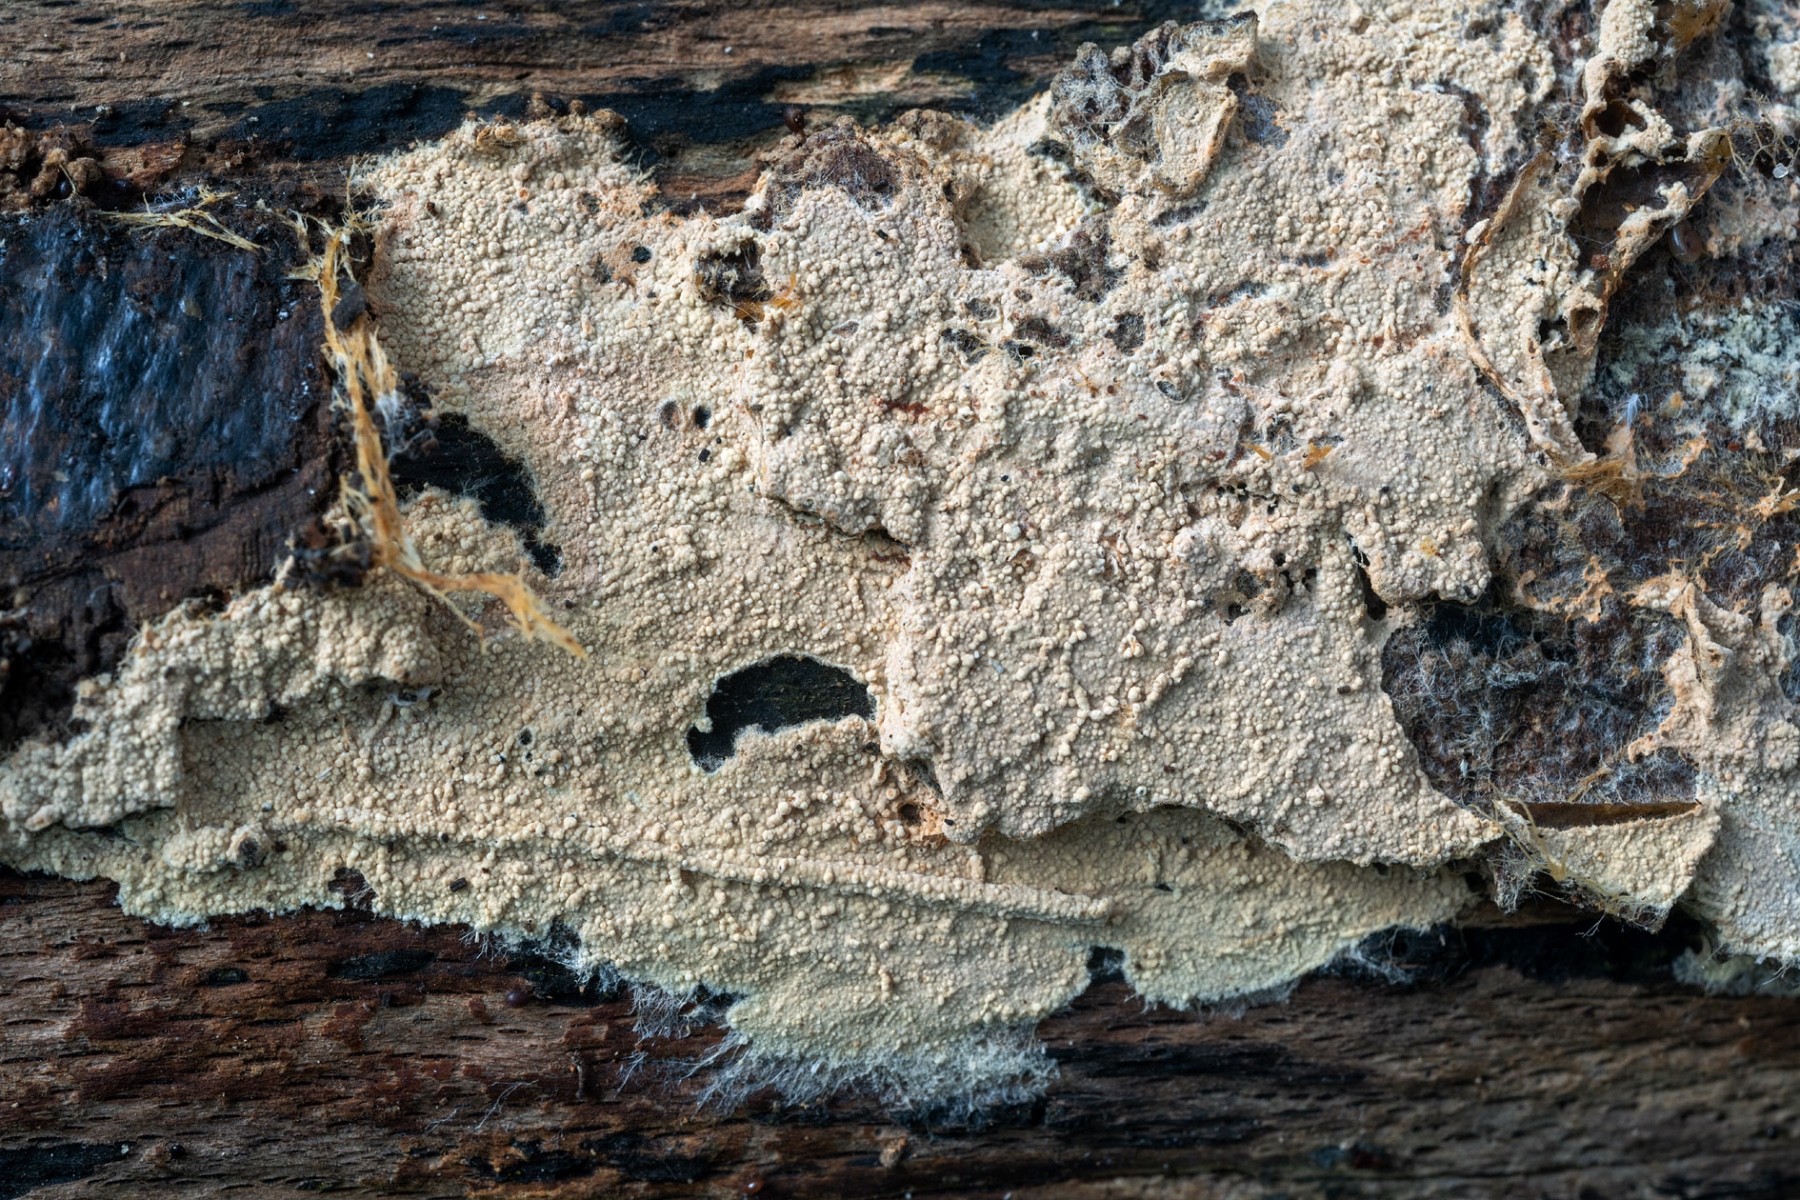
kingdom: Fungi
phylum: Basidiomycota
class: Agaricomycetes
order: Atheliales
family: Atheliaceae
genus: Hypochniciellum
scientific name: Hypochniciellum ovoideum
